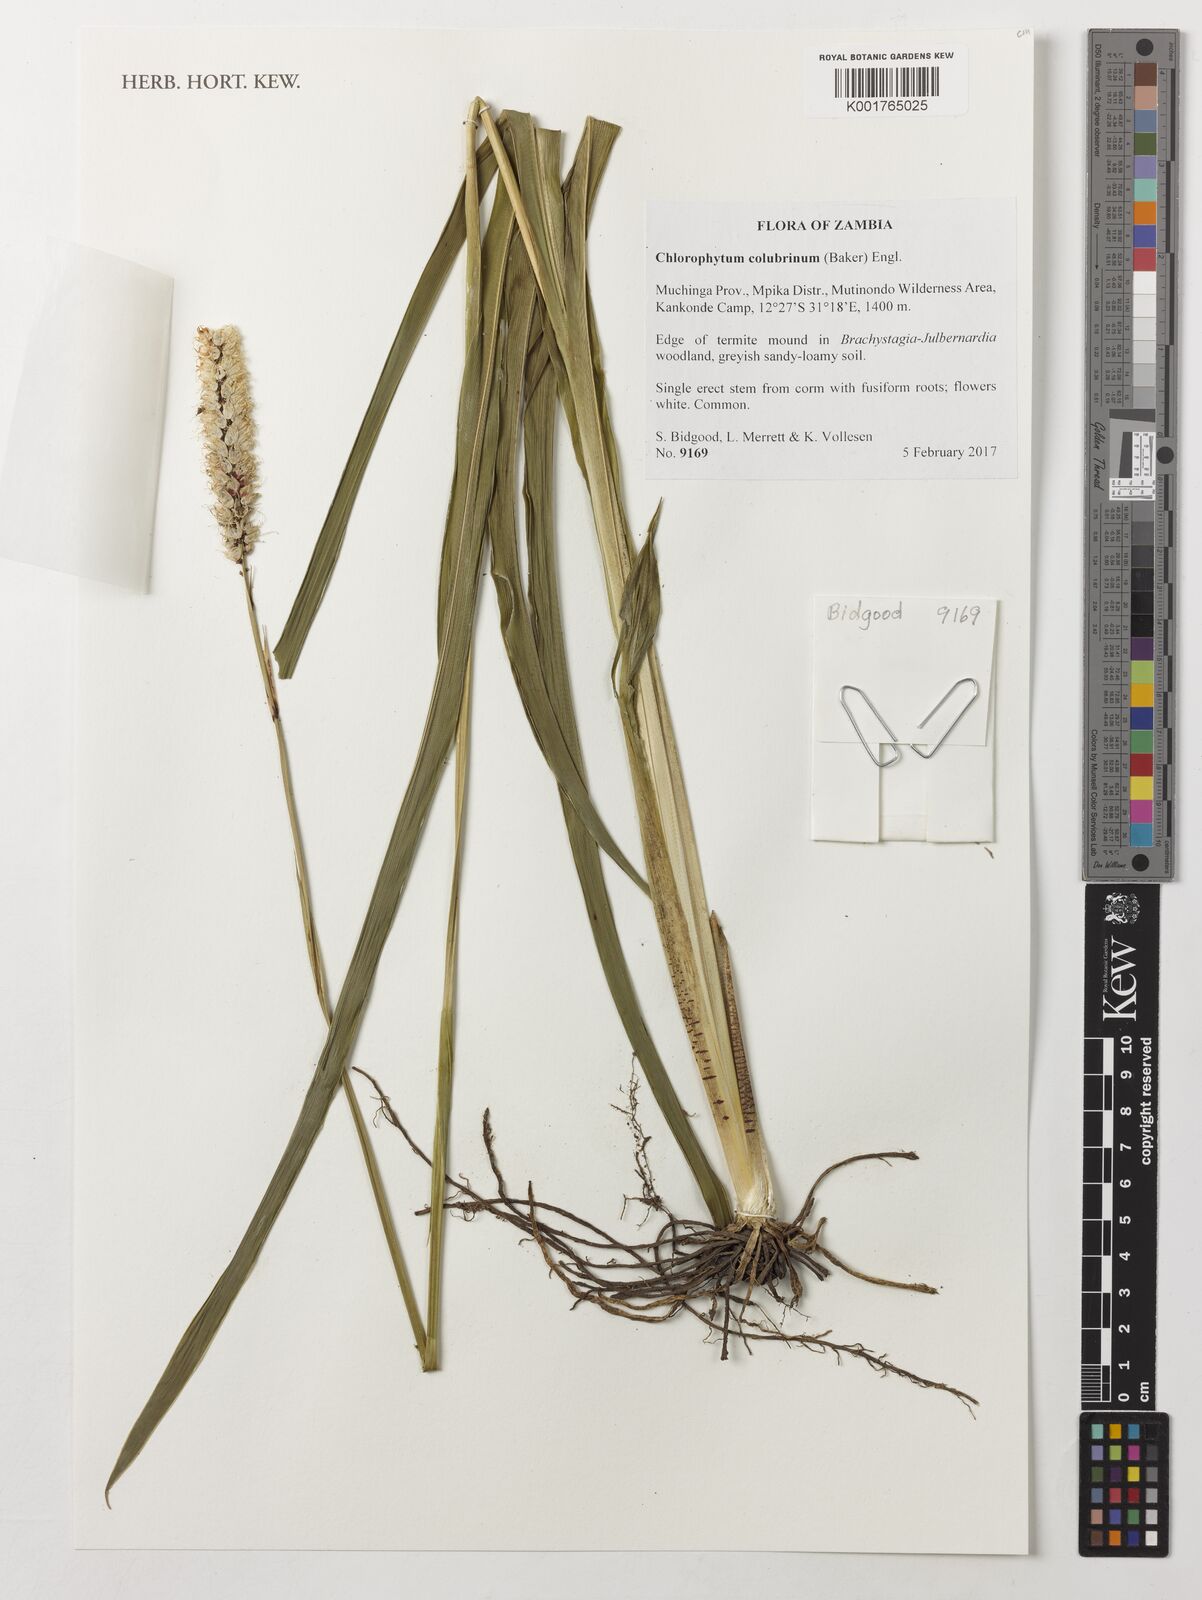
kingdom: Plantae
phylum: Tracheophyta
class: Liliopsida
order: Asparagales
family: Asparagaceae
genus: Chlorophytum
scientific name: Chlorophytum colubrinum
